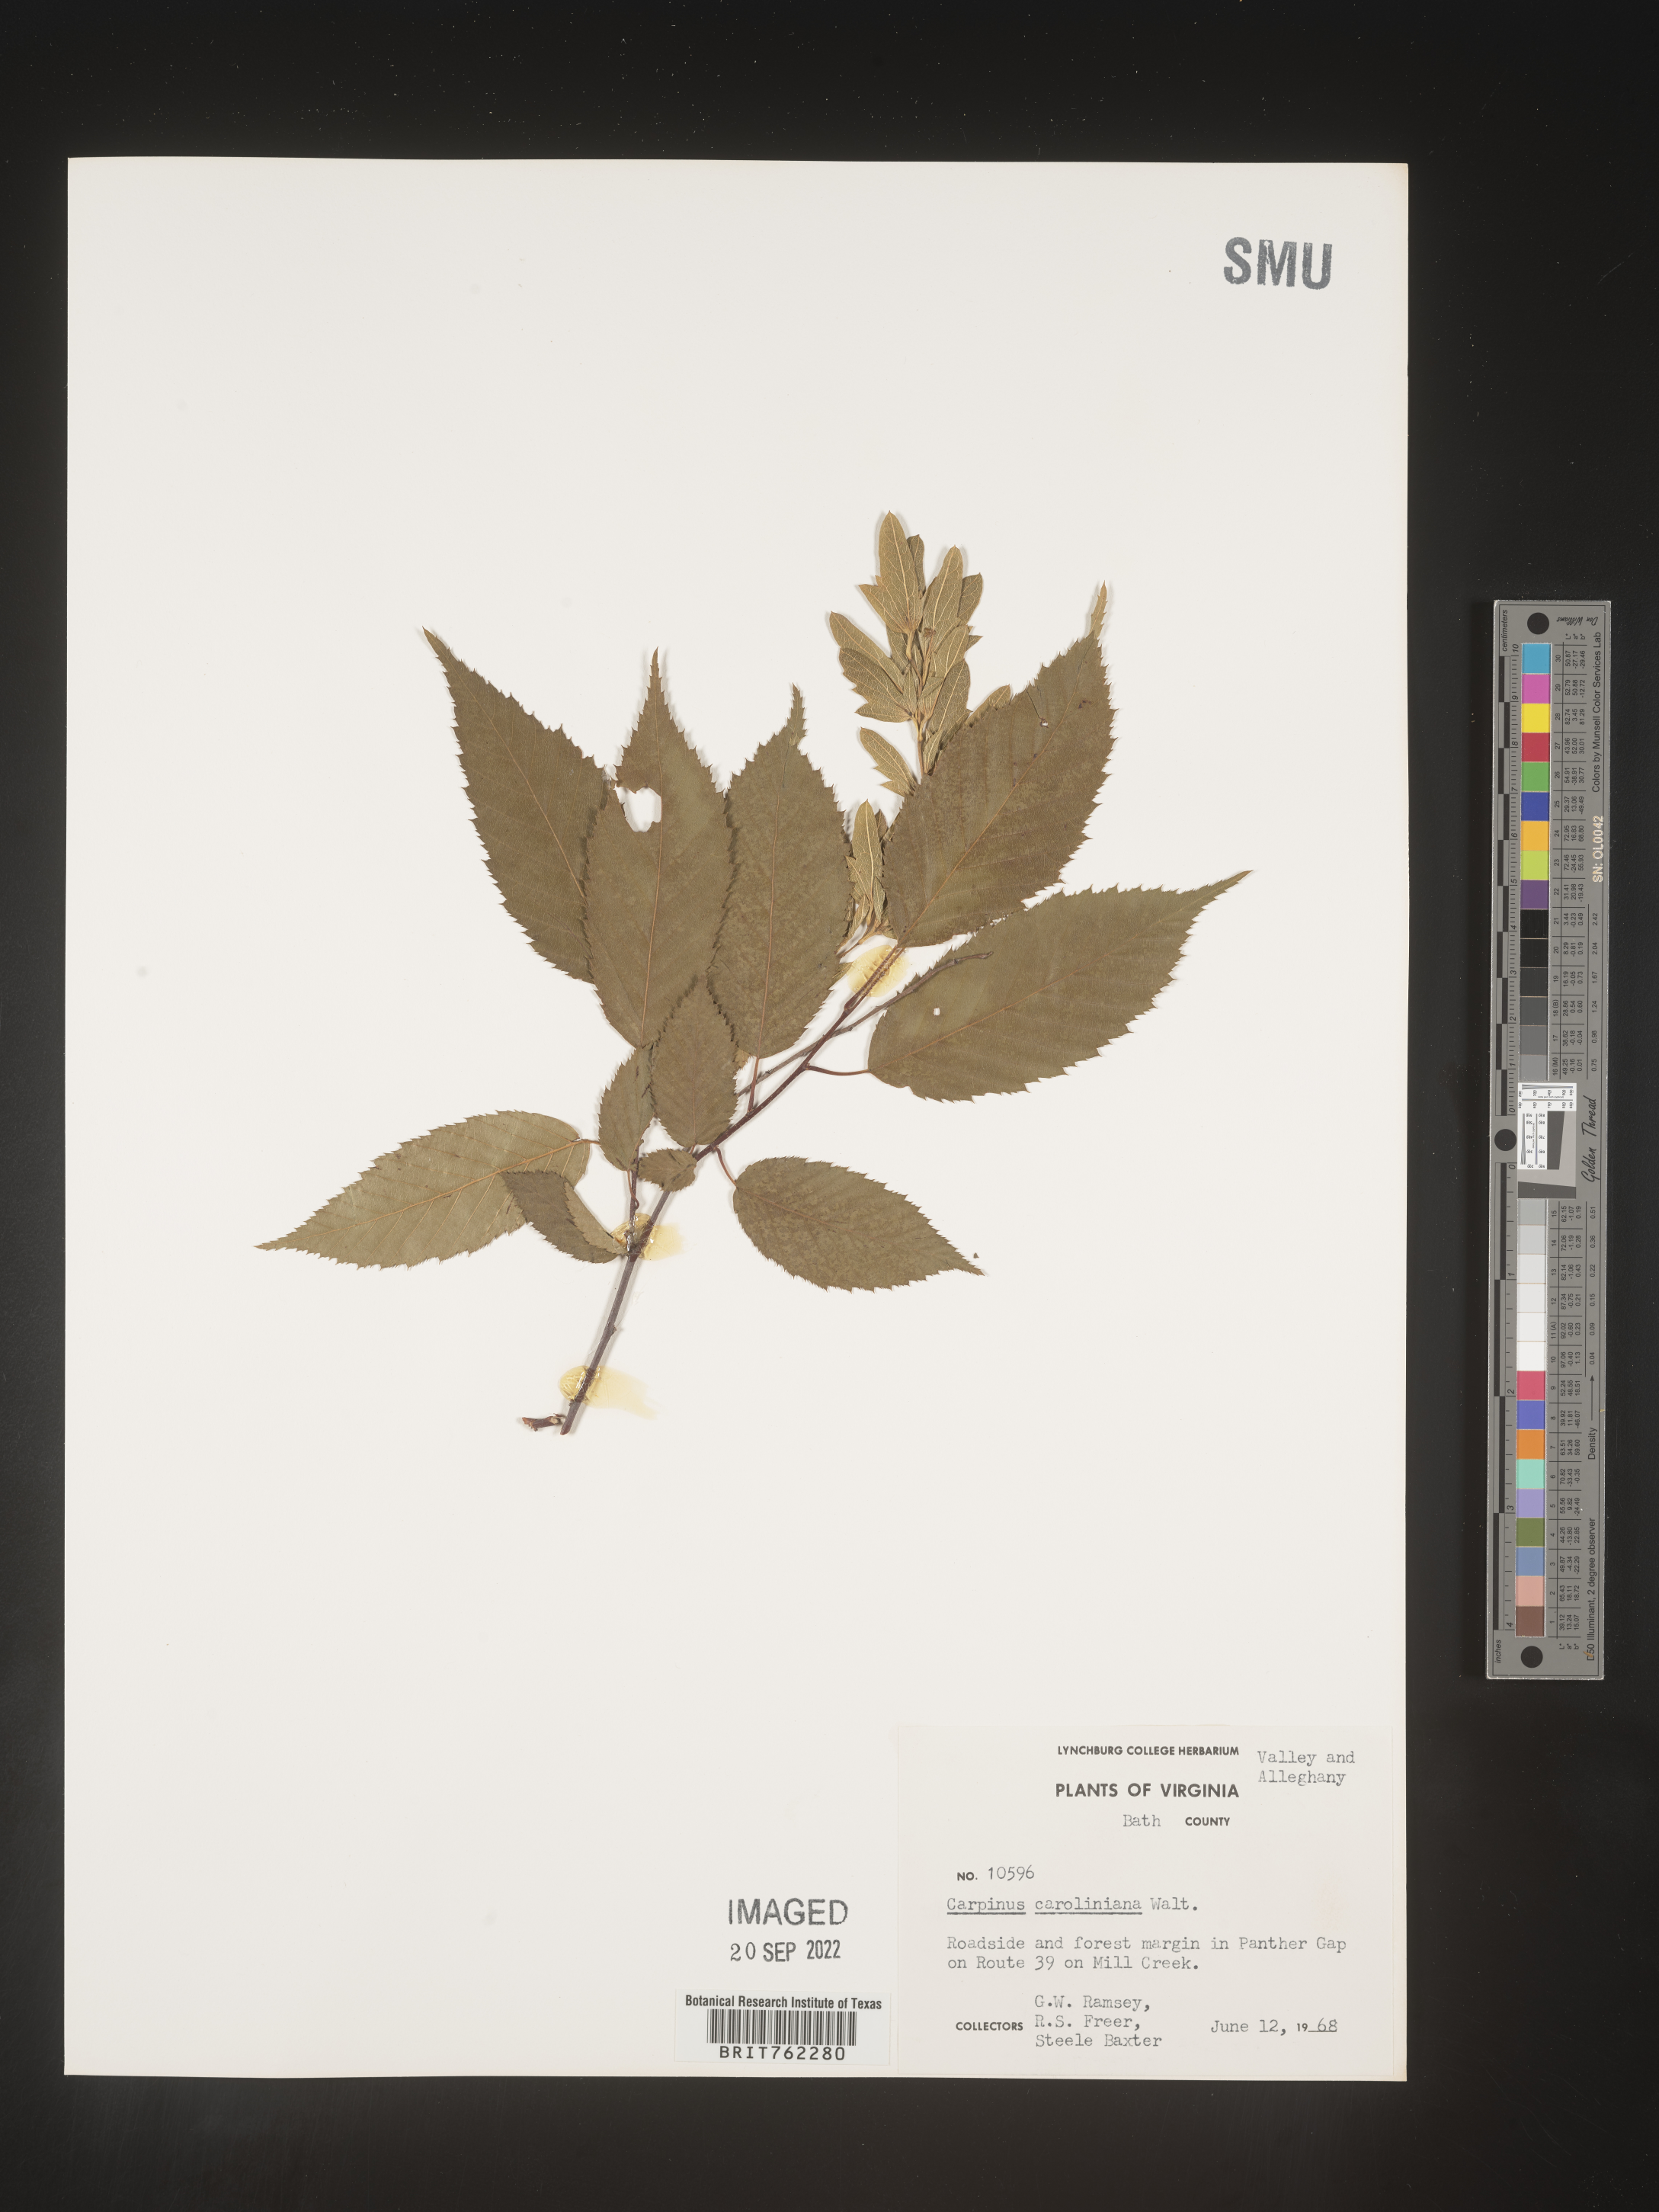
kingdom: Plantae
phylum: Tracheophyta
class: Magnoliopsida
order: Fagales
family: Betulaceae
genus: Carpinus
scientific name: Carpinus caroliniana
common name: American hornbeam
